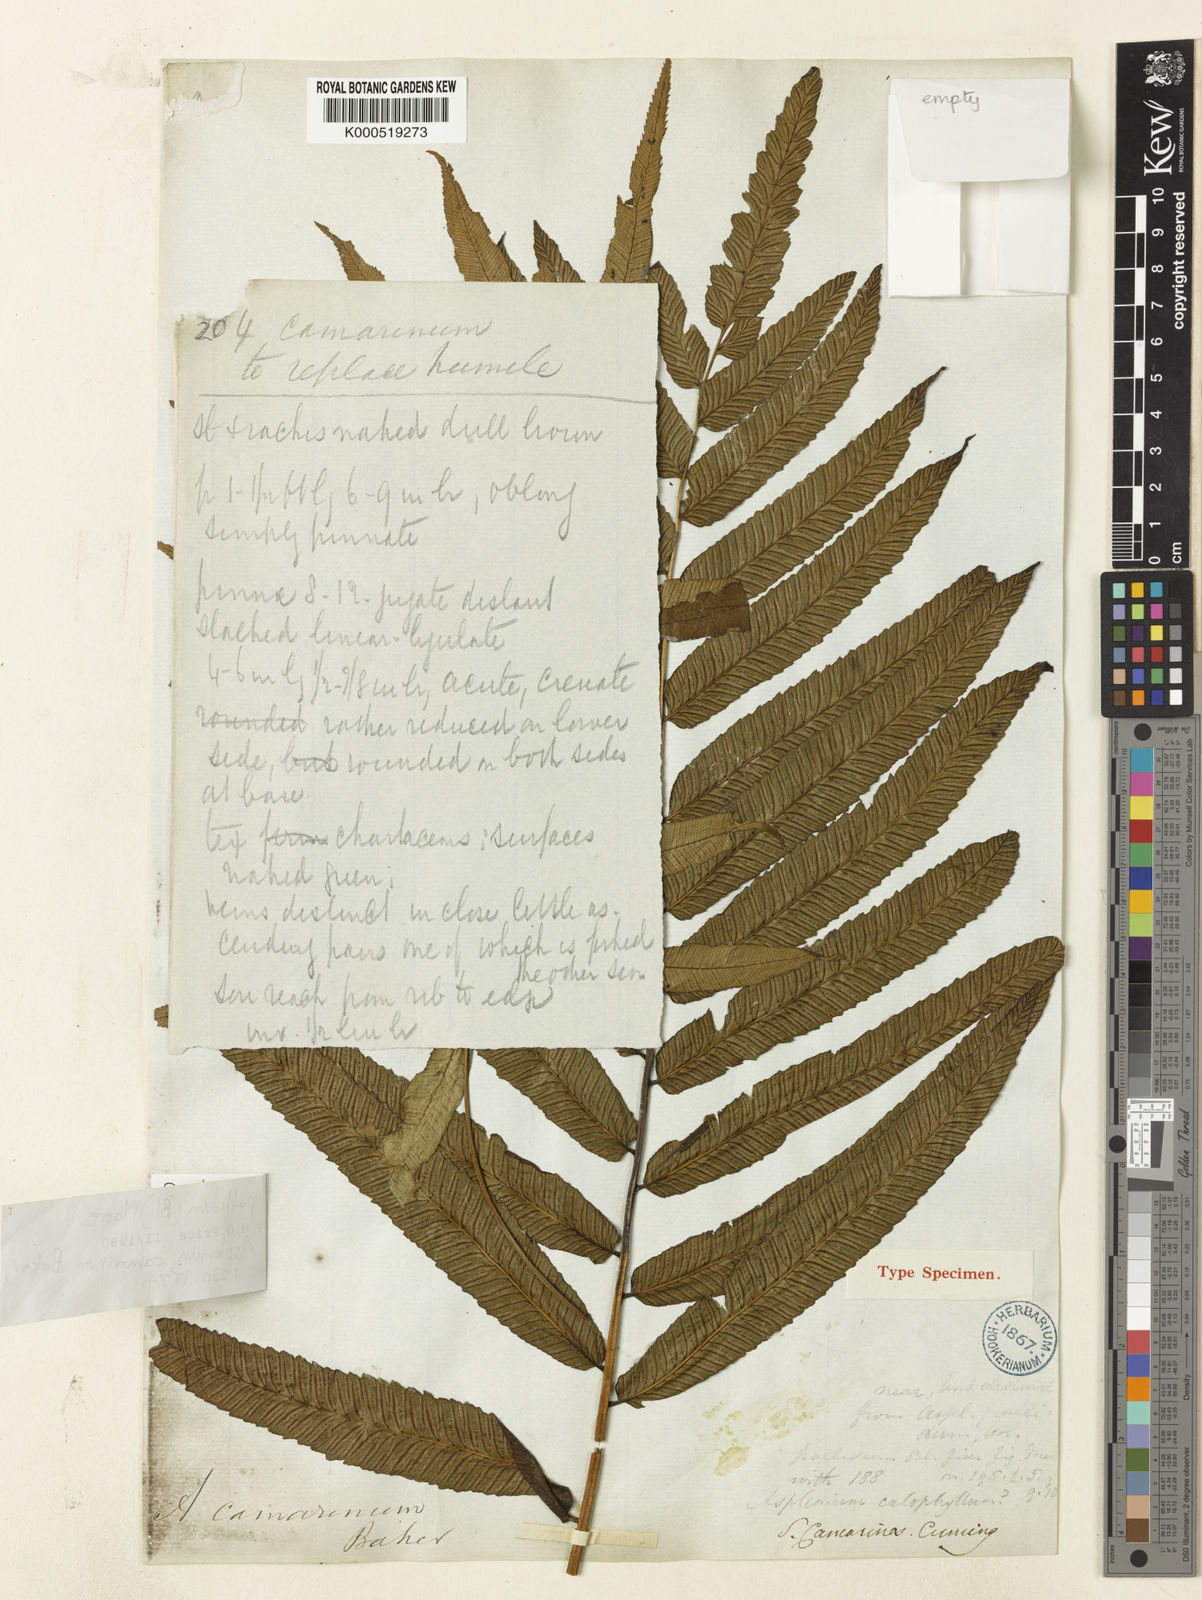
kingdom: Plantae
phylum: Tracheophyta
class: Polypodiopsida
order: Polypodiales
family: Athyriaceae
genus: Diplazium
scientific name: Diplazium pallidum
